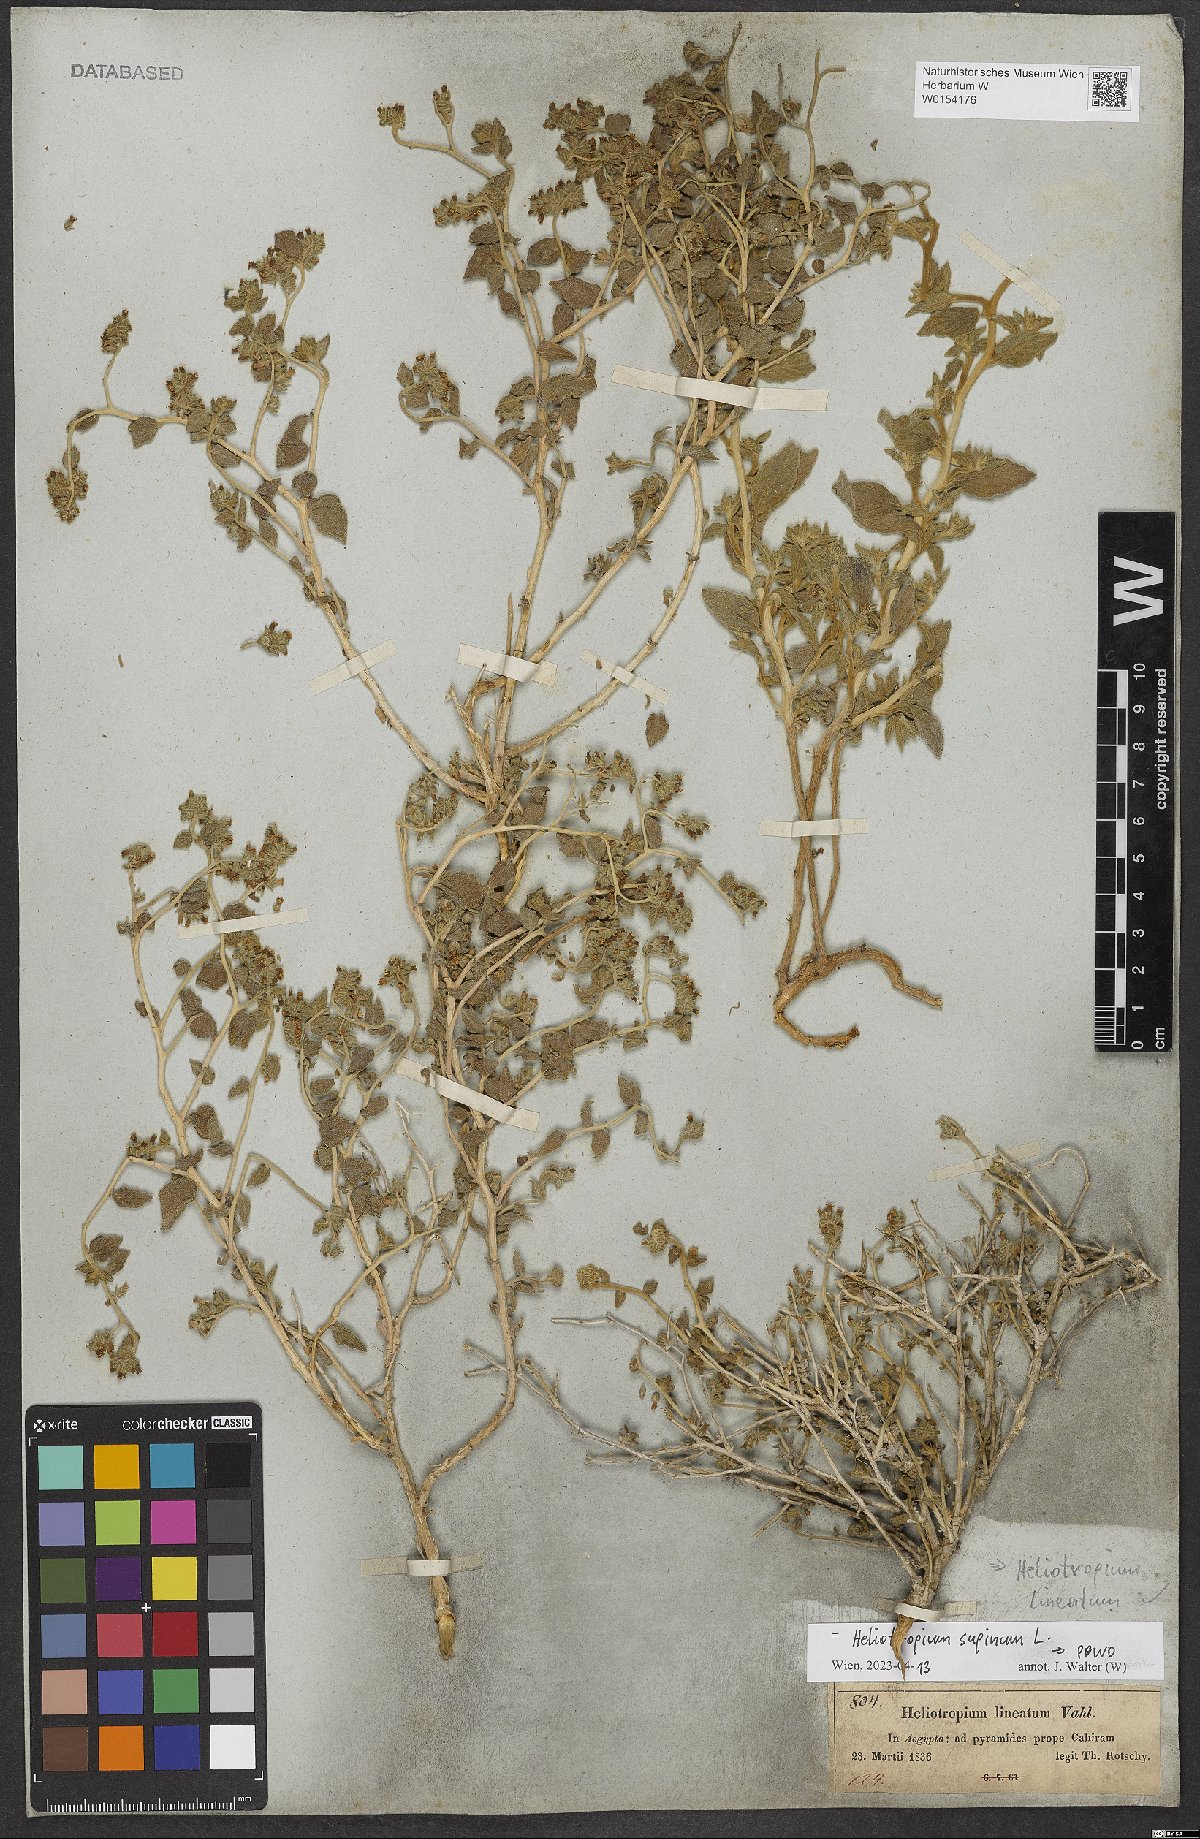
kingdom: Plantae
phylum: Tracheophyta
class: Magnoliopsida
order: Boraginales
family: Heliotropiaceae
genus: Heliotropium
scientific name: Heliotropium supinum
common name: Dwarf heliotrope
